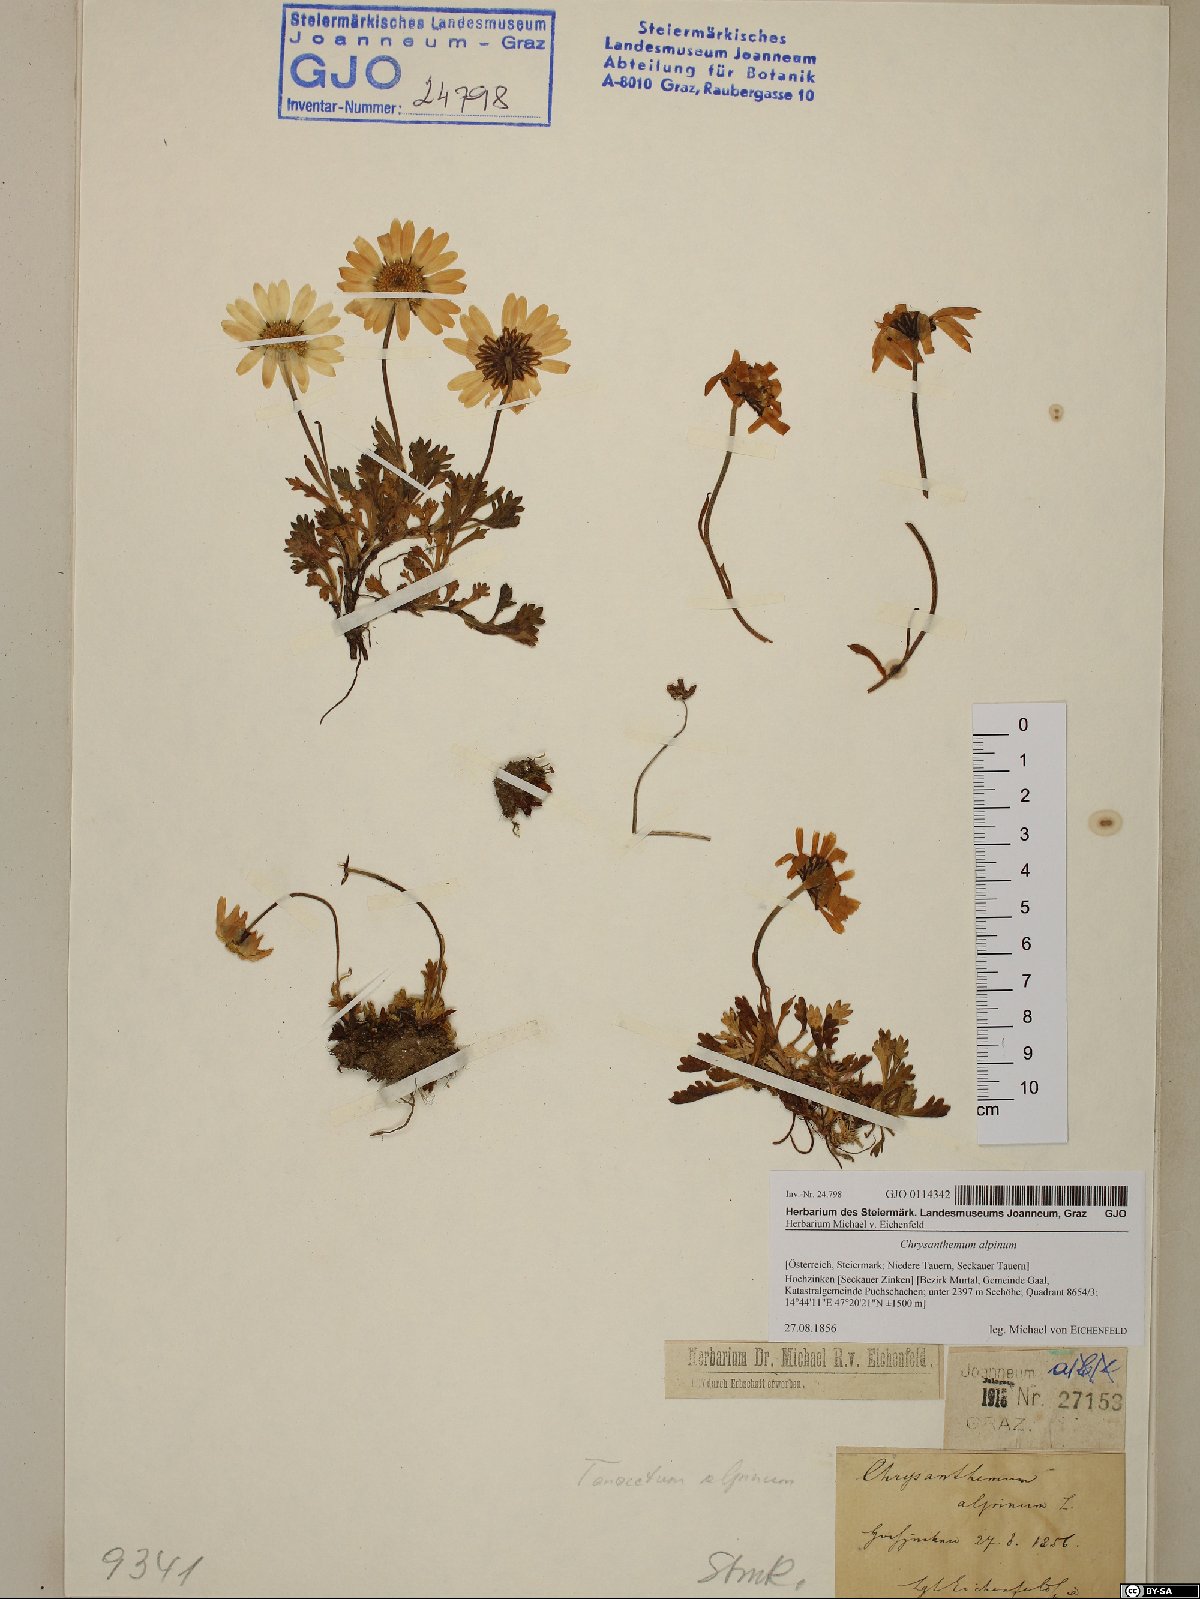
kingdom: Plantae
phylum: Tracheophyta
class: Magnoliopsida
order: Asterales
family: Asteraceae
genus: Leucanthemopsis
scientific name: Leucanthemopsis alpina
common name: Alpine moon daisy
